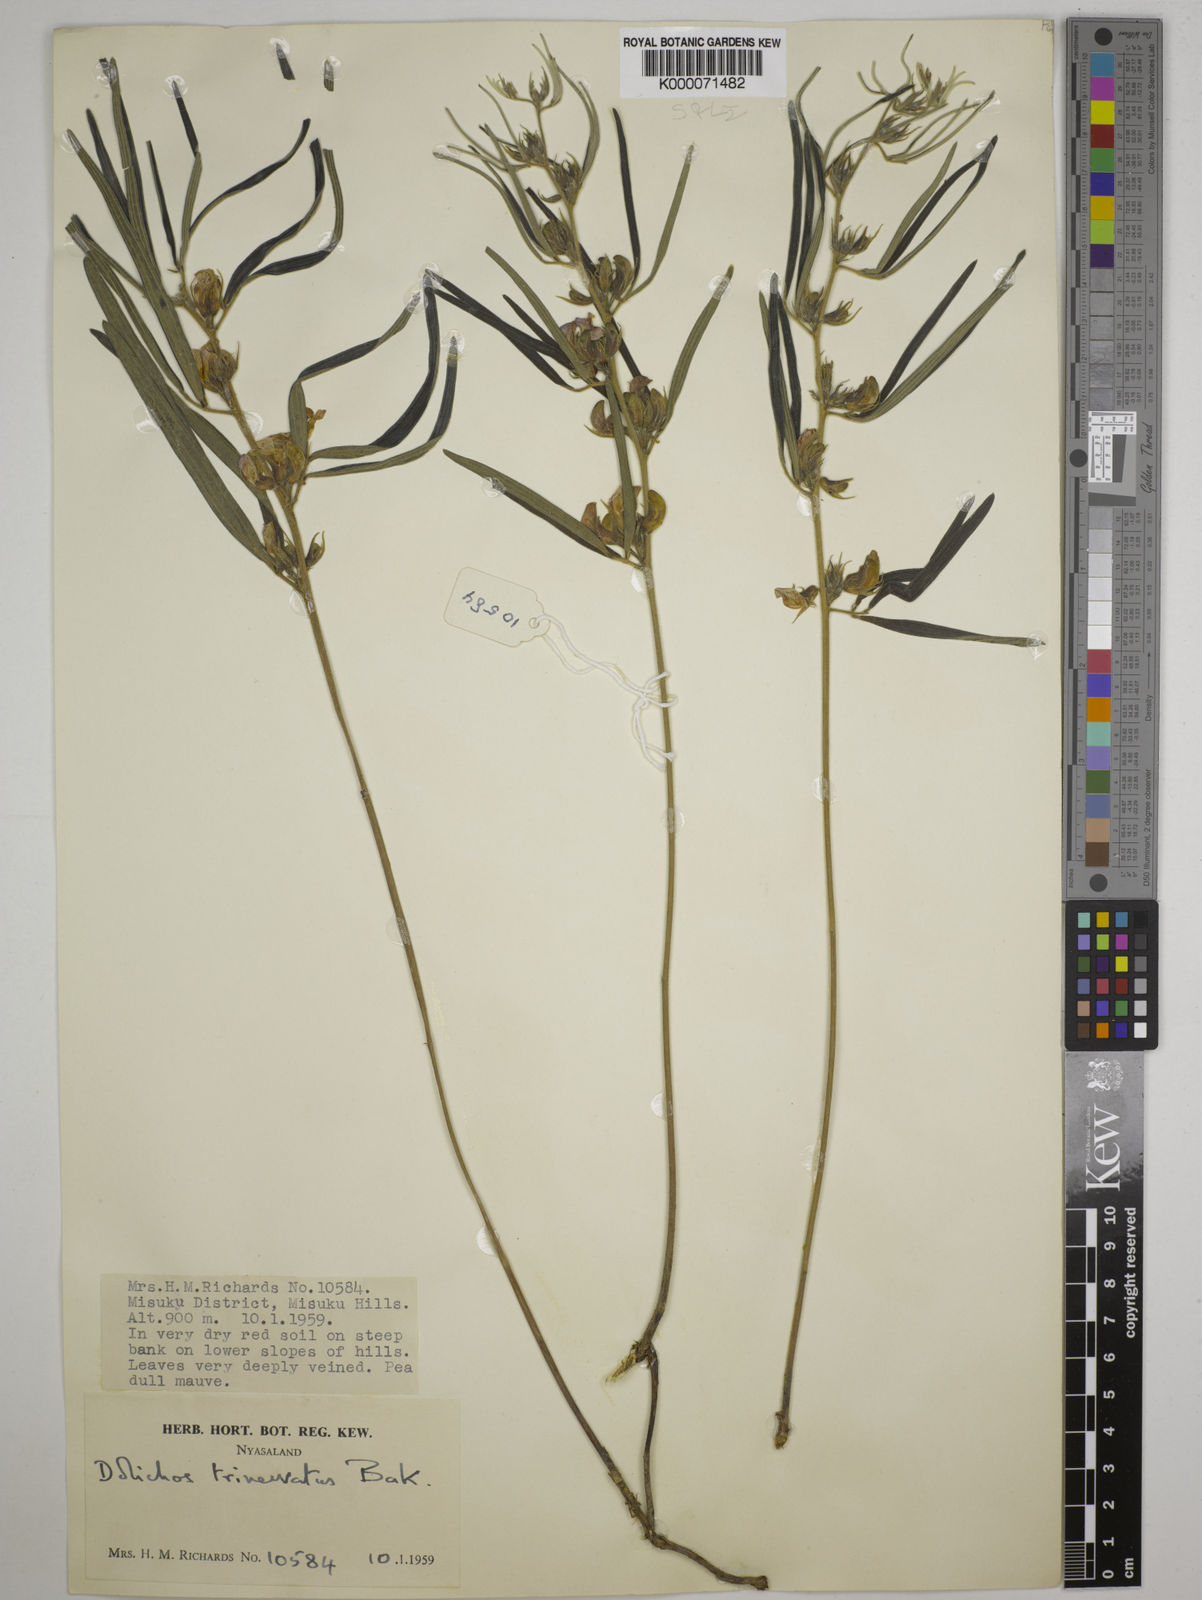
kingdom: Plantae
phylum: Tracheophyta
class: Magnoliopsida
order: Fabales
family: Fabaceae
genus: Dolichos
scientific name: Dolichos trinervatus
